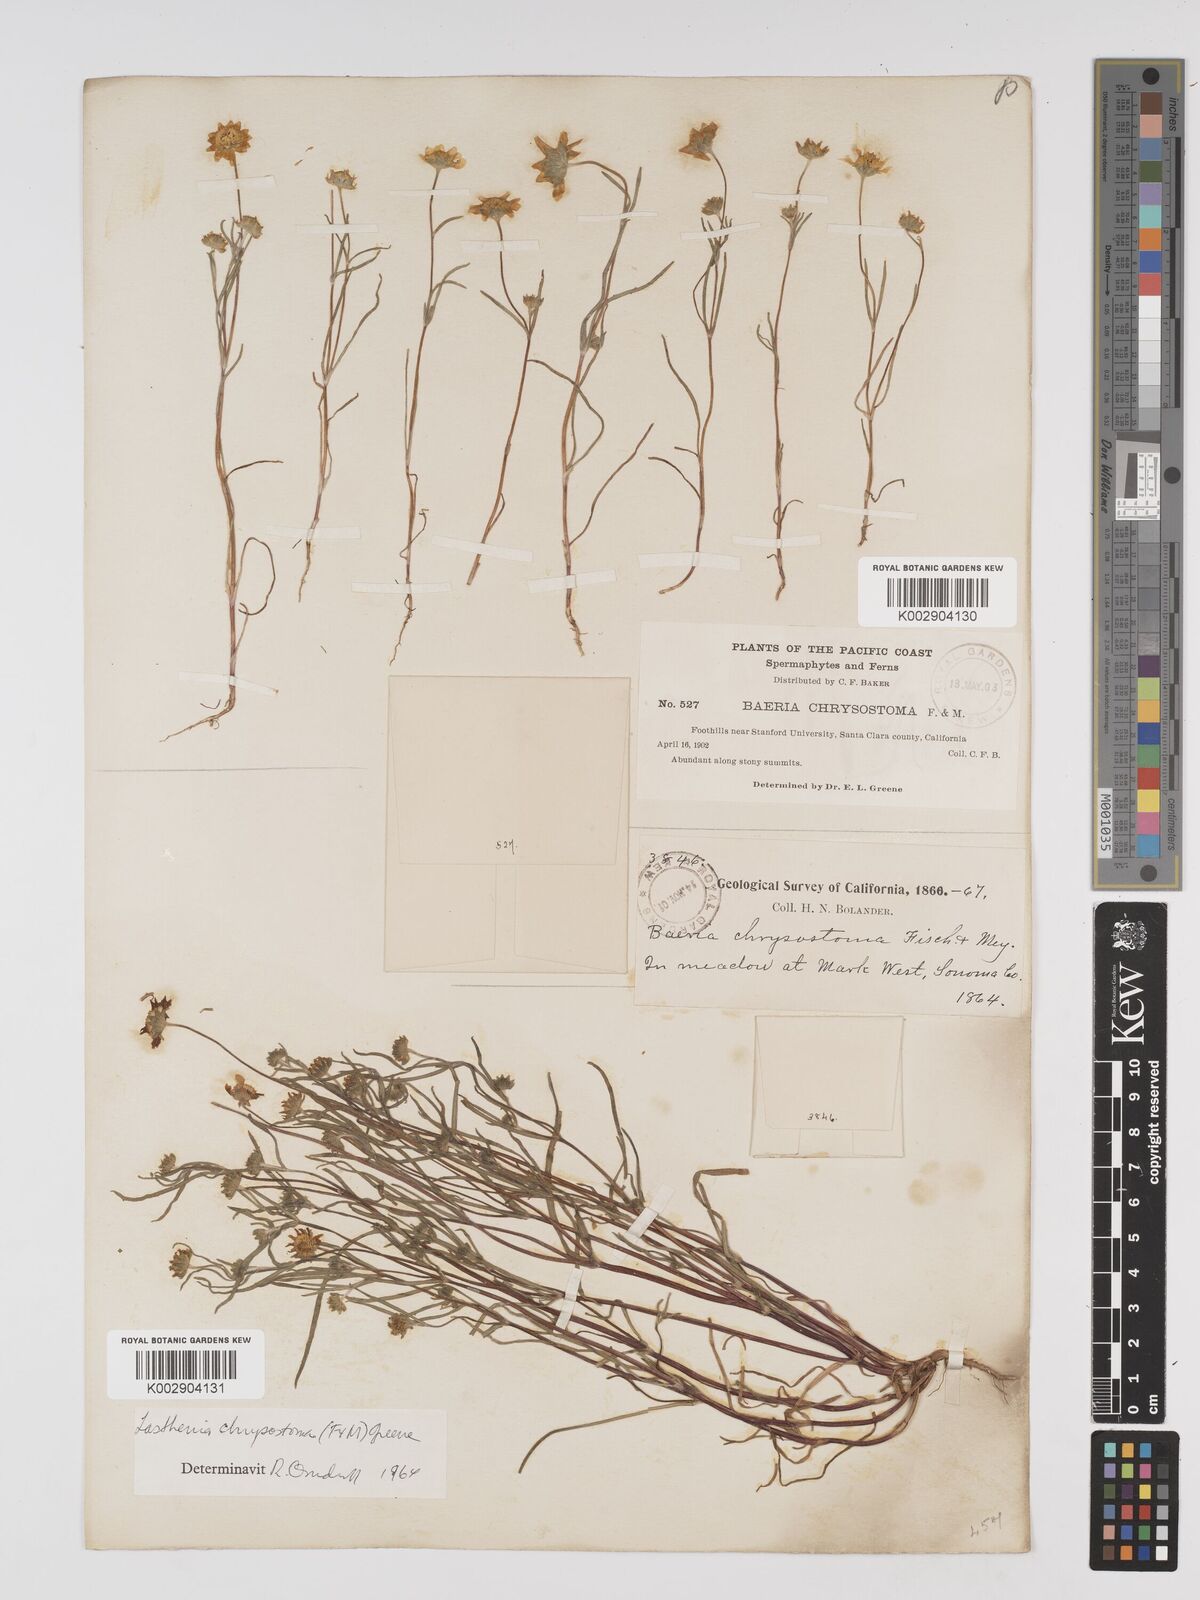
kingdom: Plantae
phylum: Tracheophyta
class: Magnoliopsida
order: Asterales
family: Asteraceae
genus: Lasthenia
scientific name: Lasthenia californica
